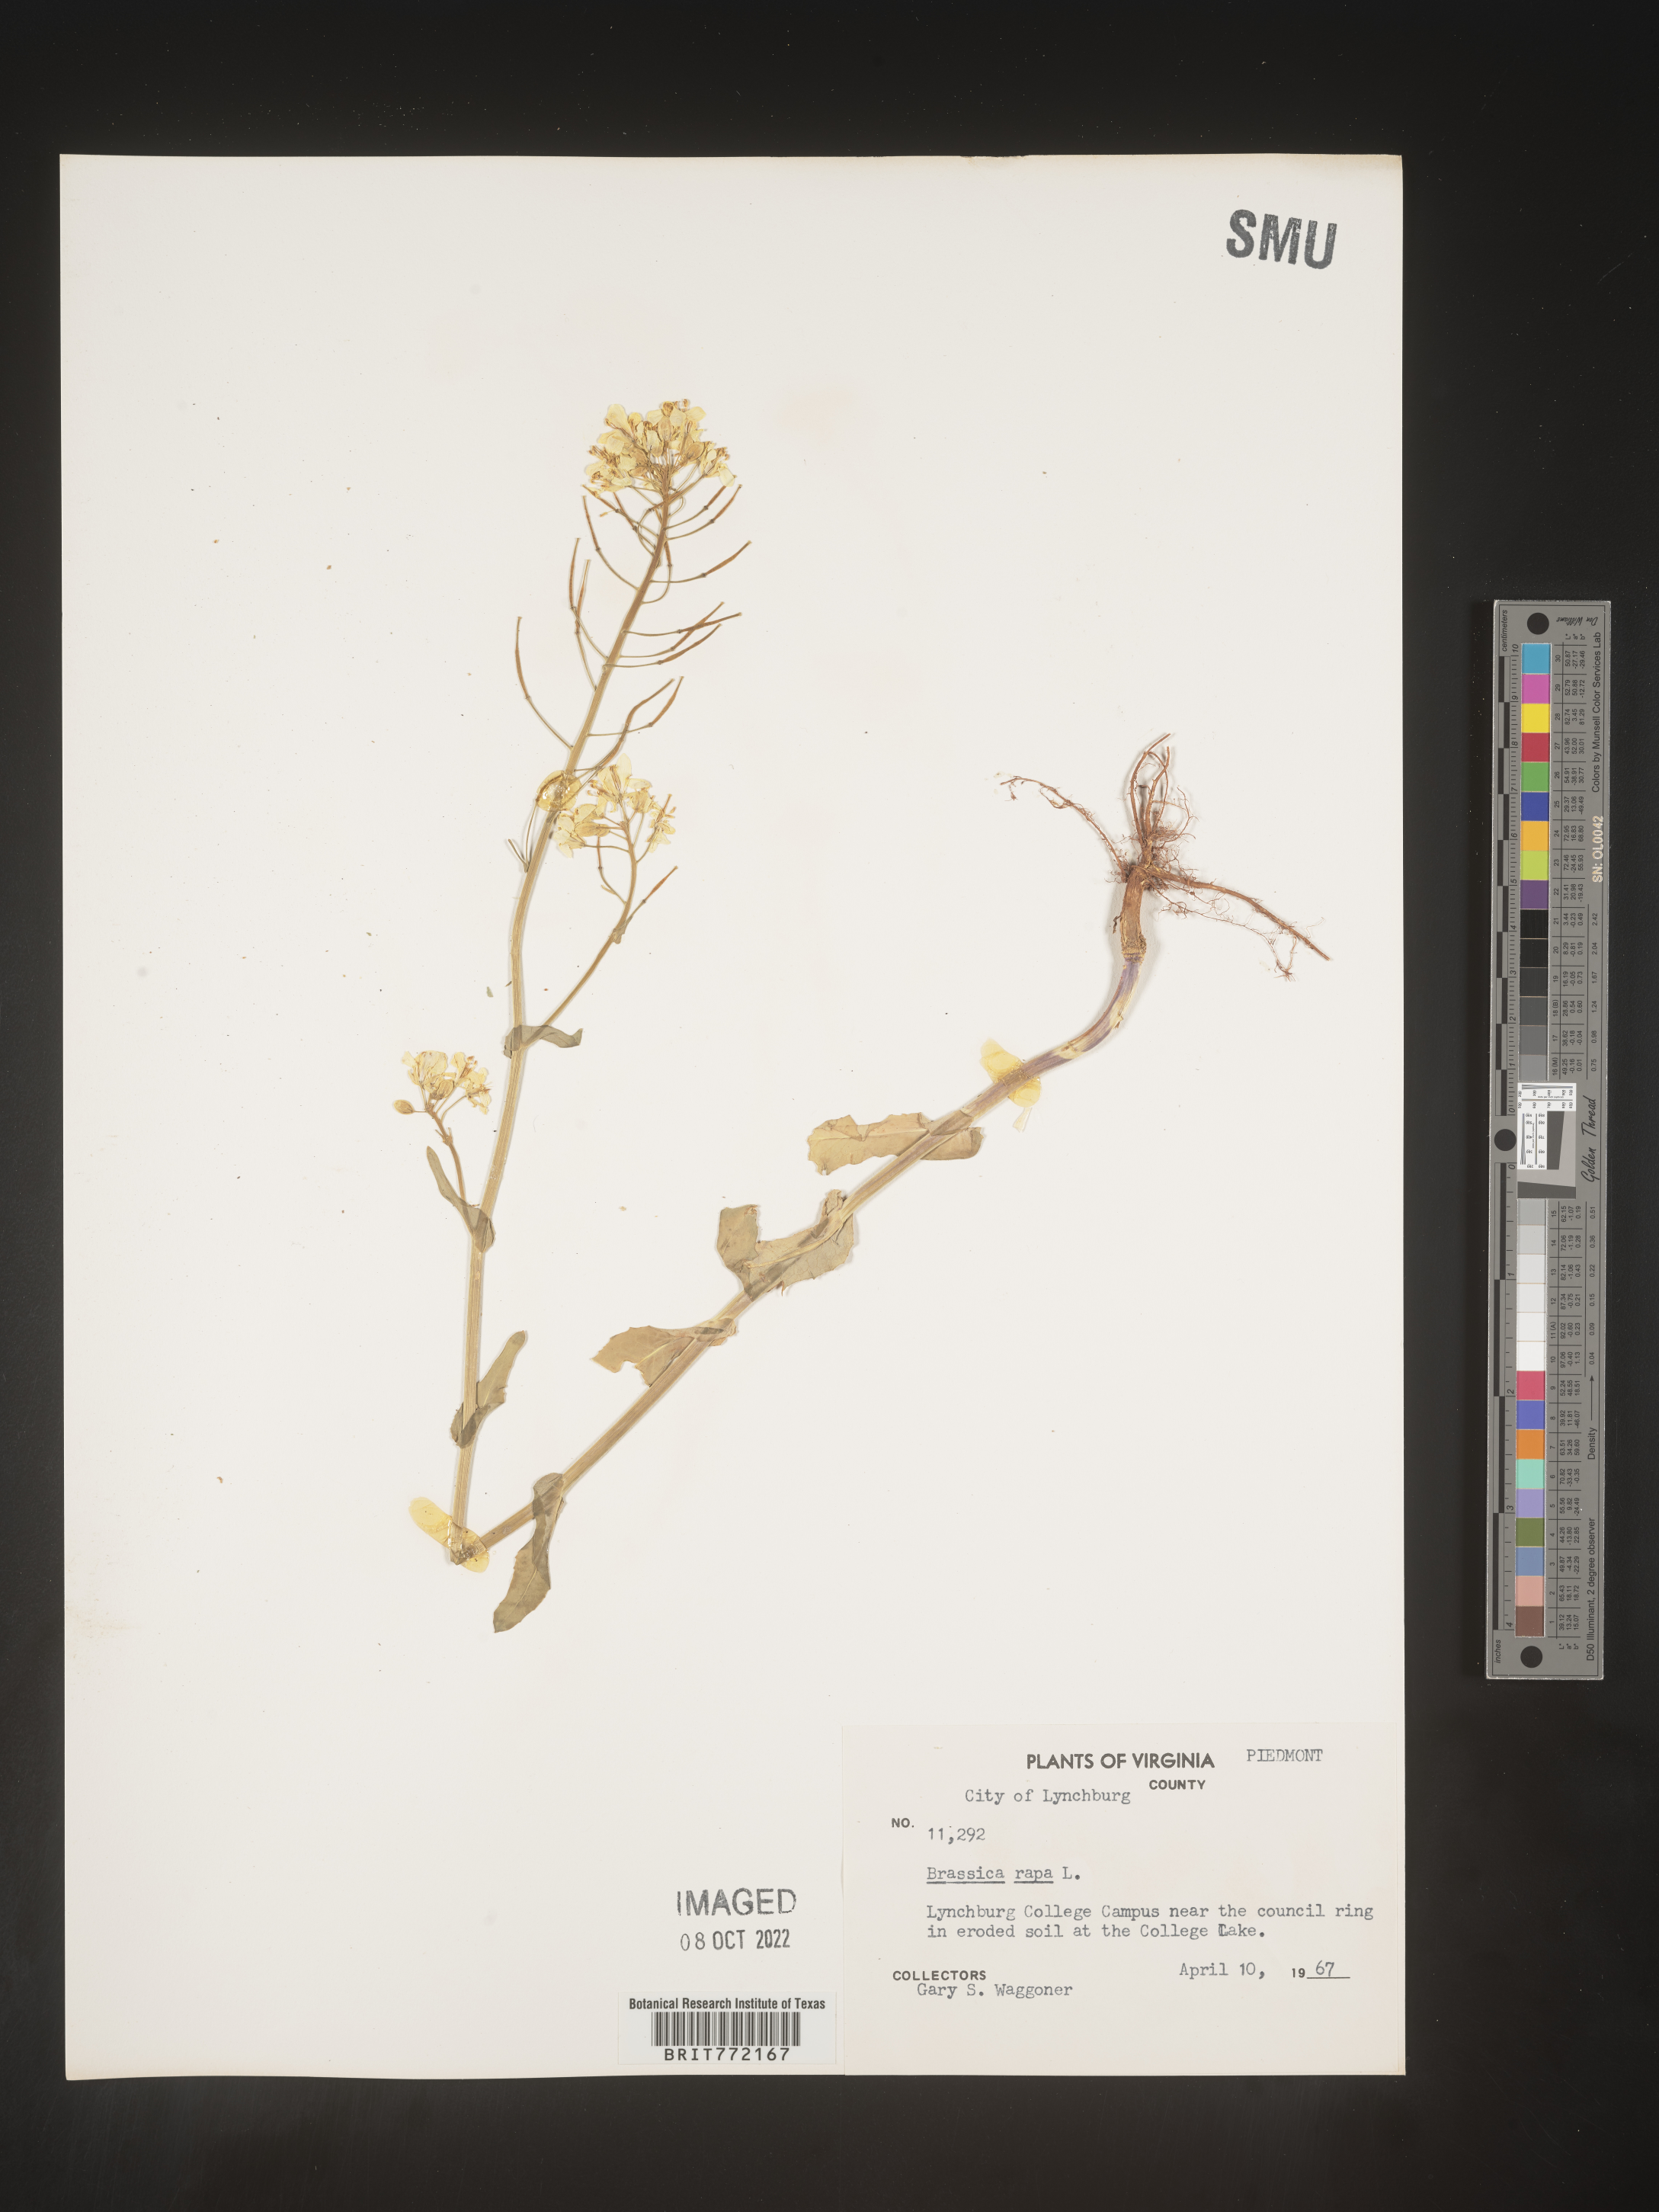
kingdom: Plantae
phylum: Tracheophyta
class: Magnoliopsida
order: Brassicales
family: Brassicaceae
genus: Brassica
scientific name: Brassica rapa
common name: Field mustard
